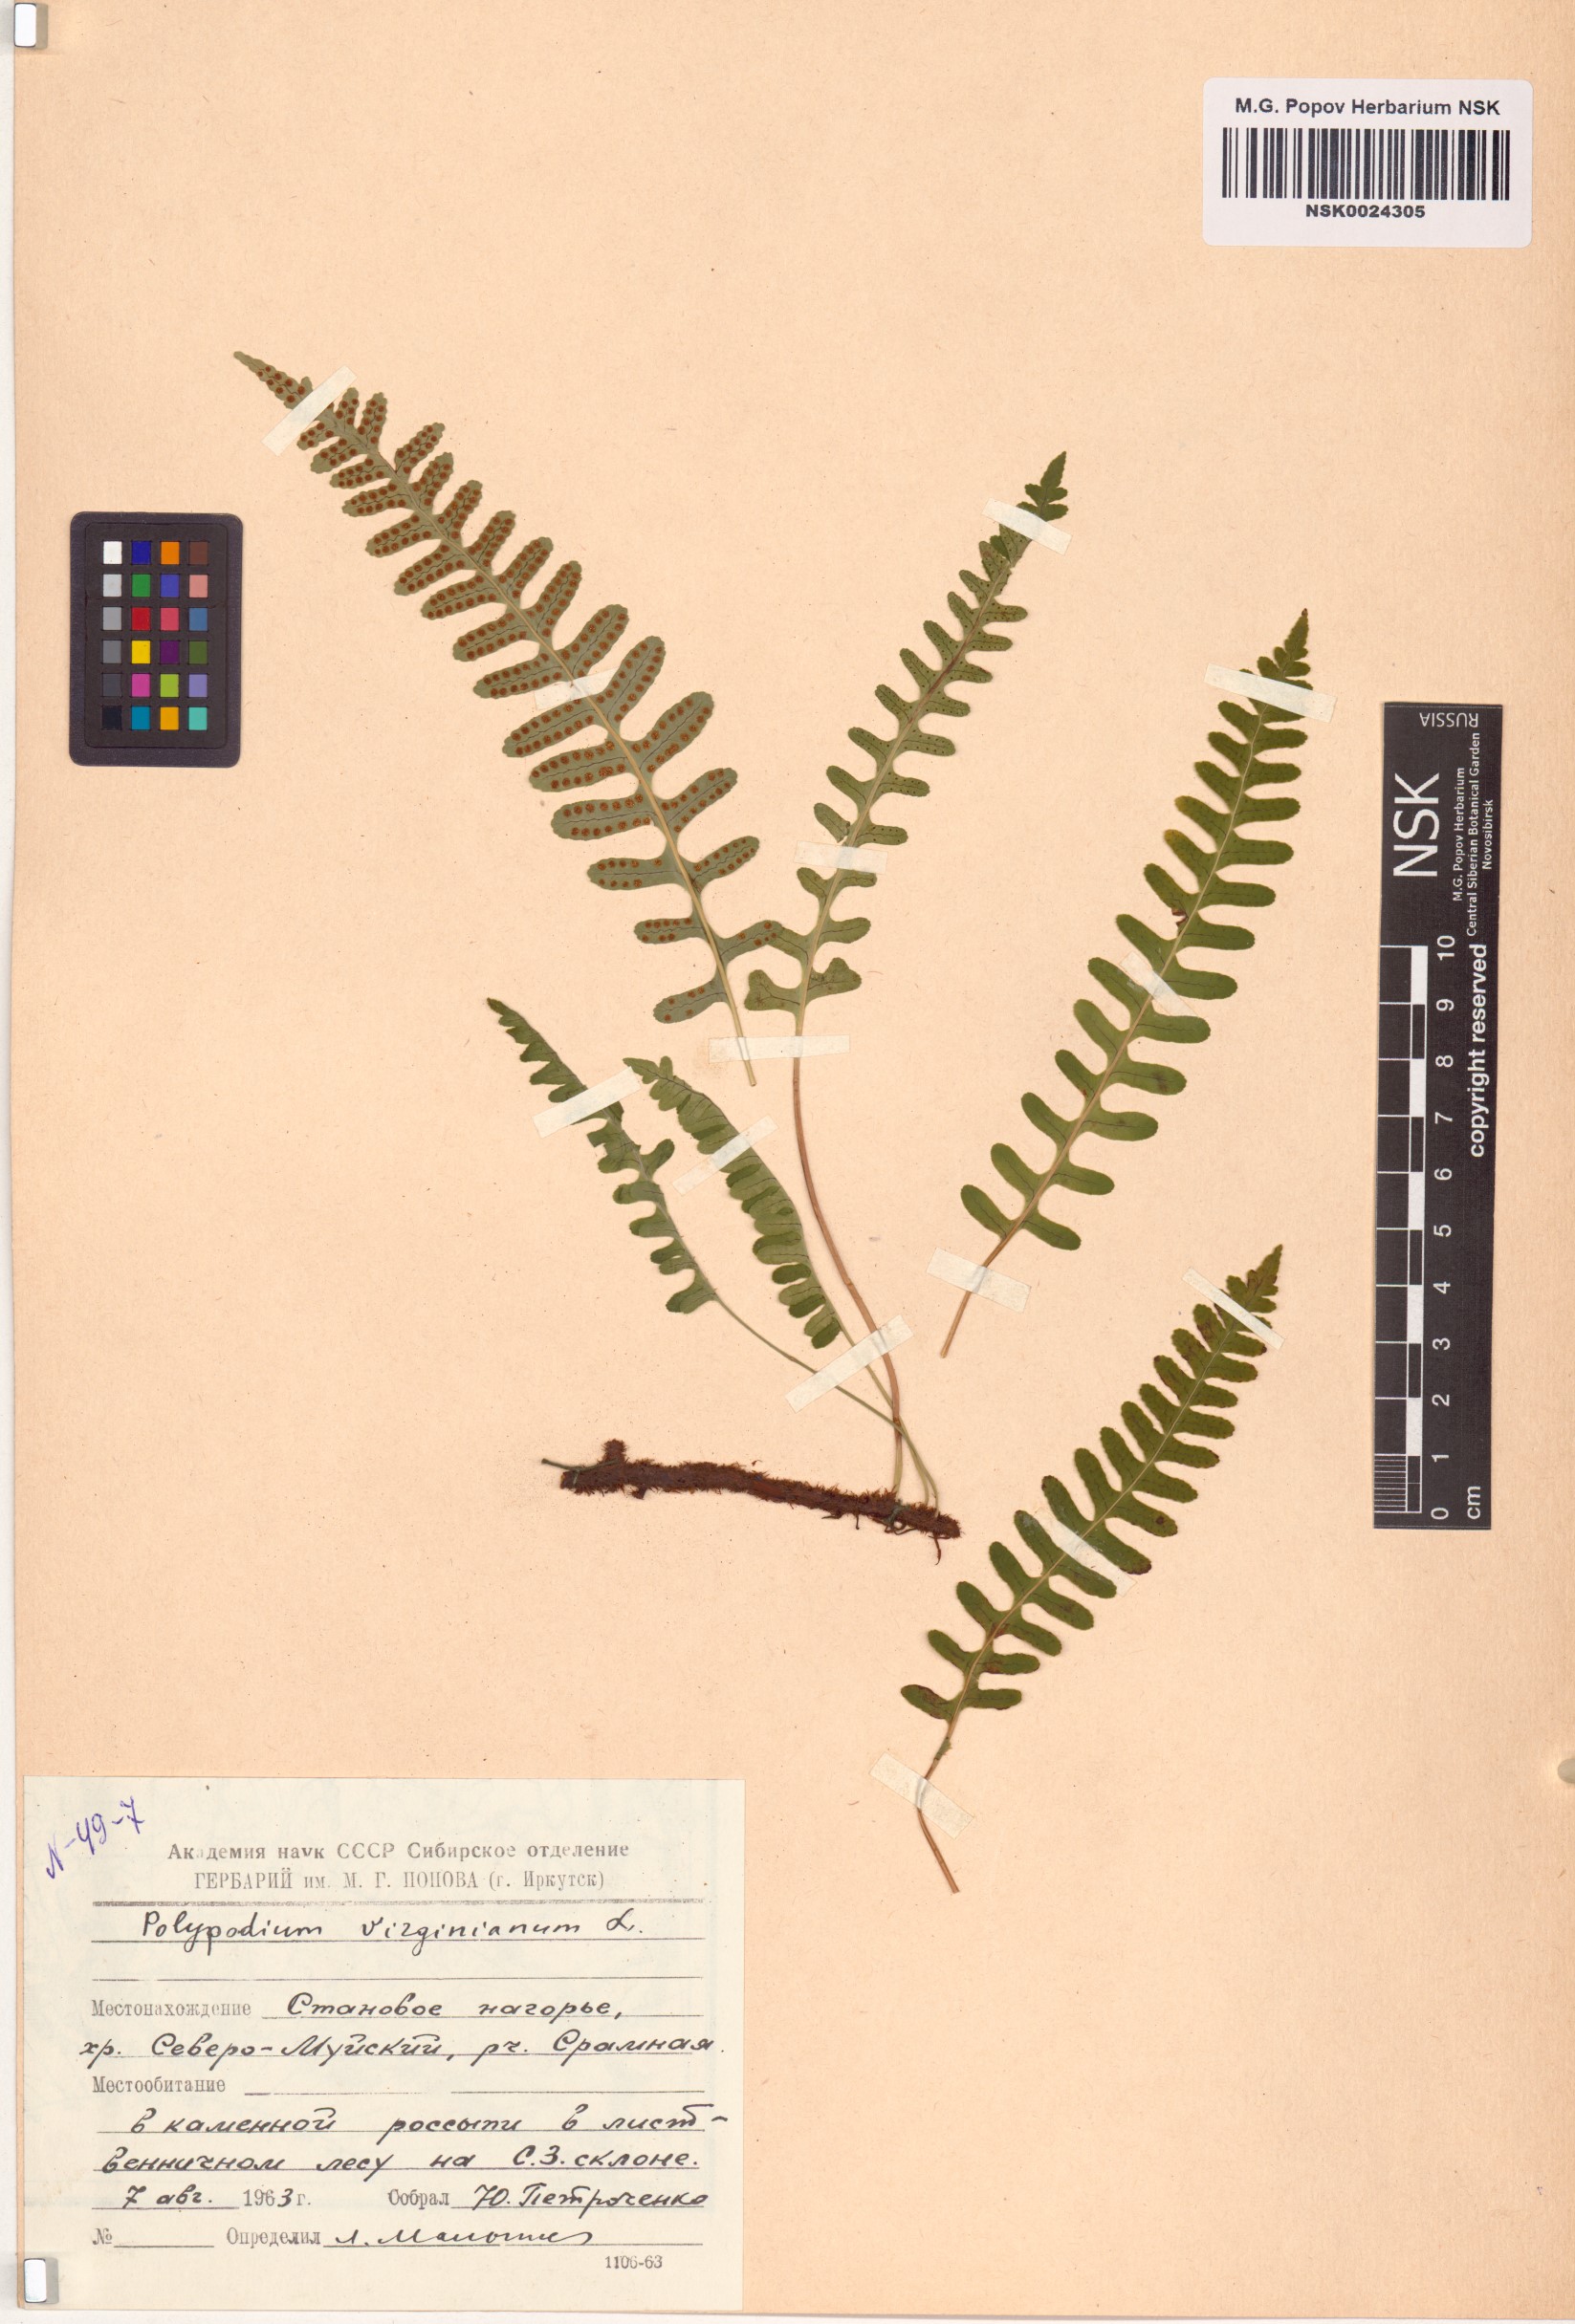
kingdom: Plantae
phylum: Tracheophyta
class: Polypodiopsida
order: Polypodiales
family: Polypodiaceae
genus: Polypodium
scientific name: Polypodium virginianum
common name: American wall fern
